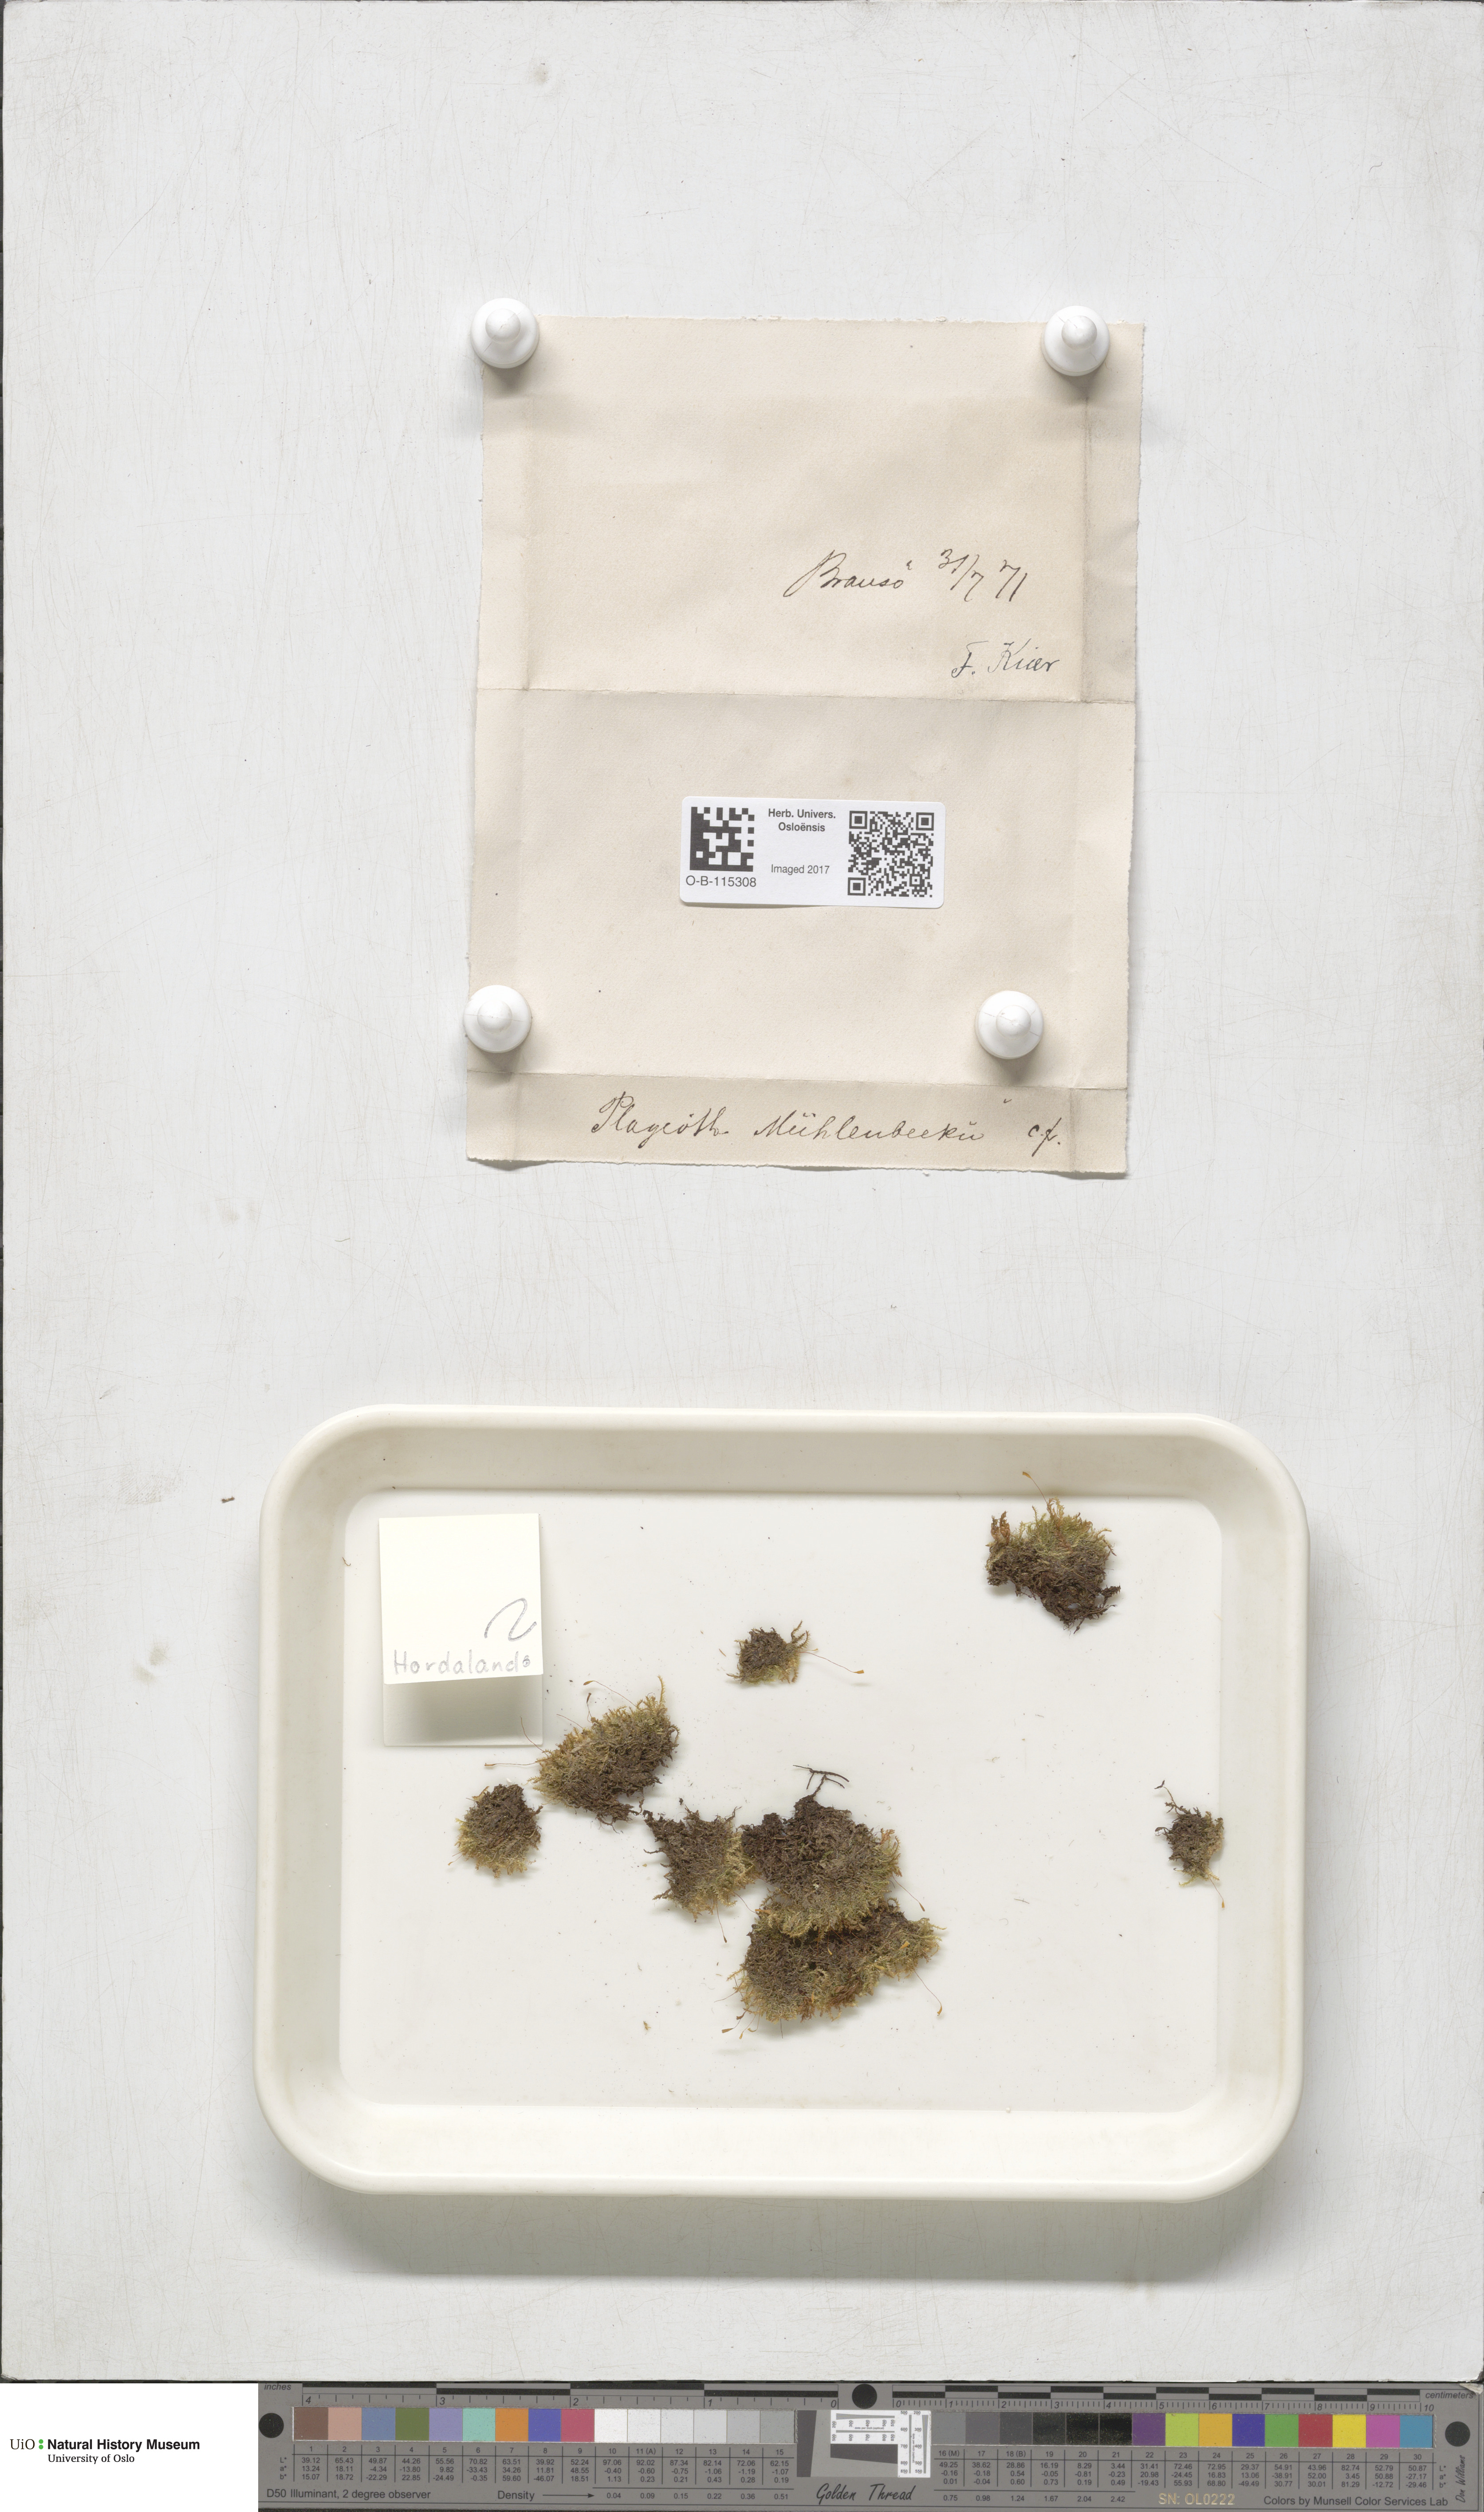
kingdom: Plantae
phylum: Bryophyta
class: Bryopsida
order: Hypnales
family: Plagiotheciaceae
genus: Herzogiella
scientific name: Herzogiella striatella
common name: Muhlenbeck's feather-moss
